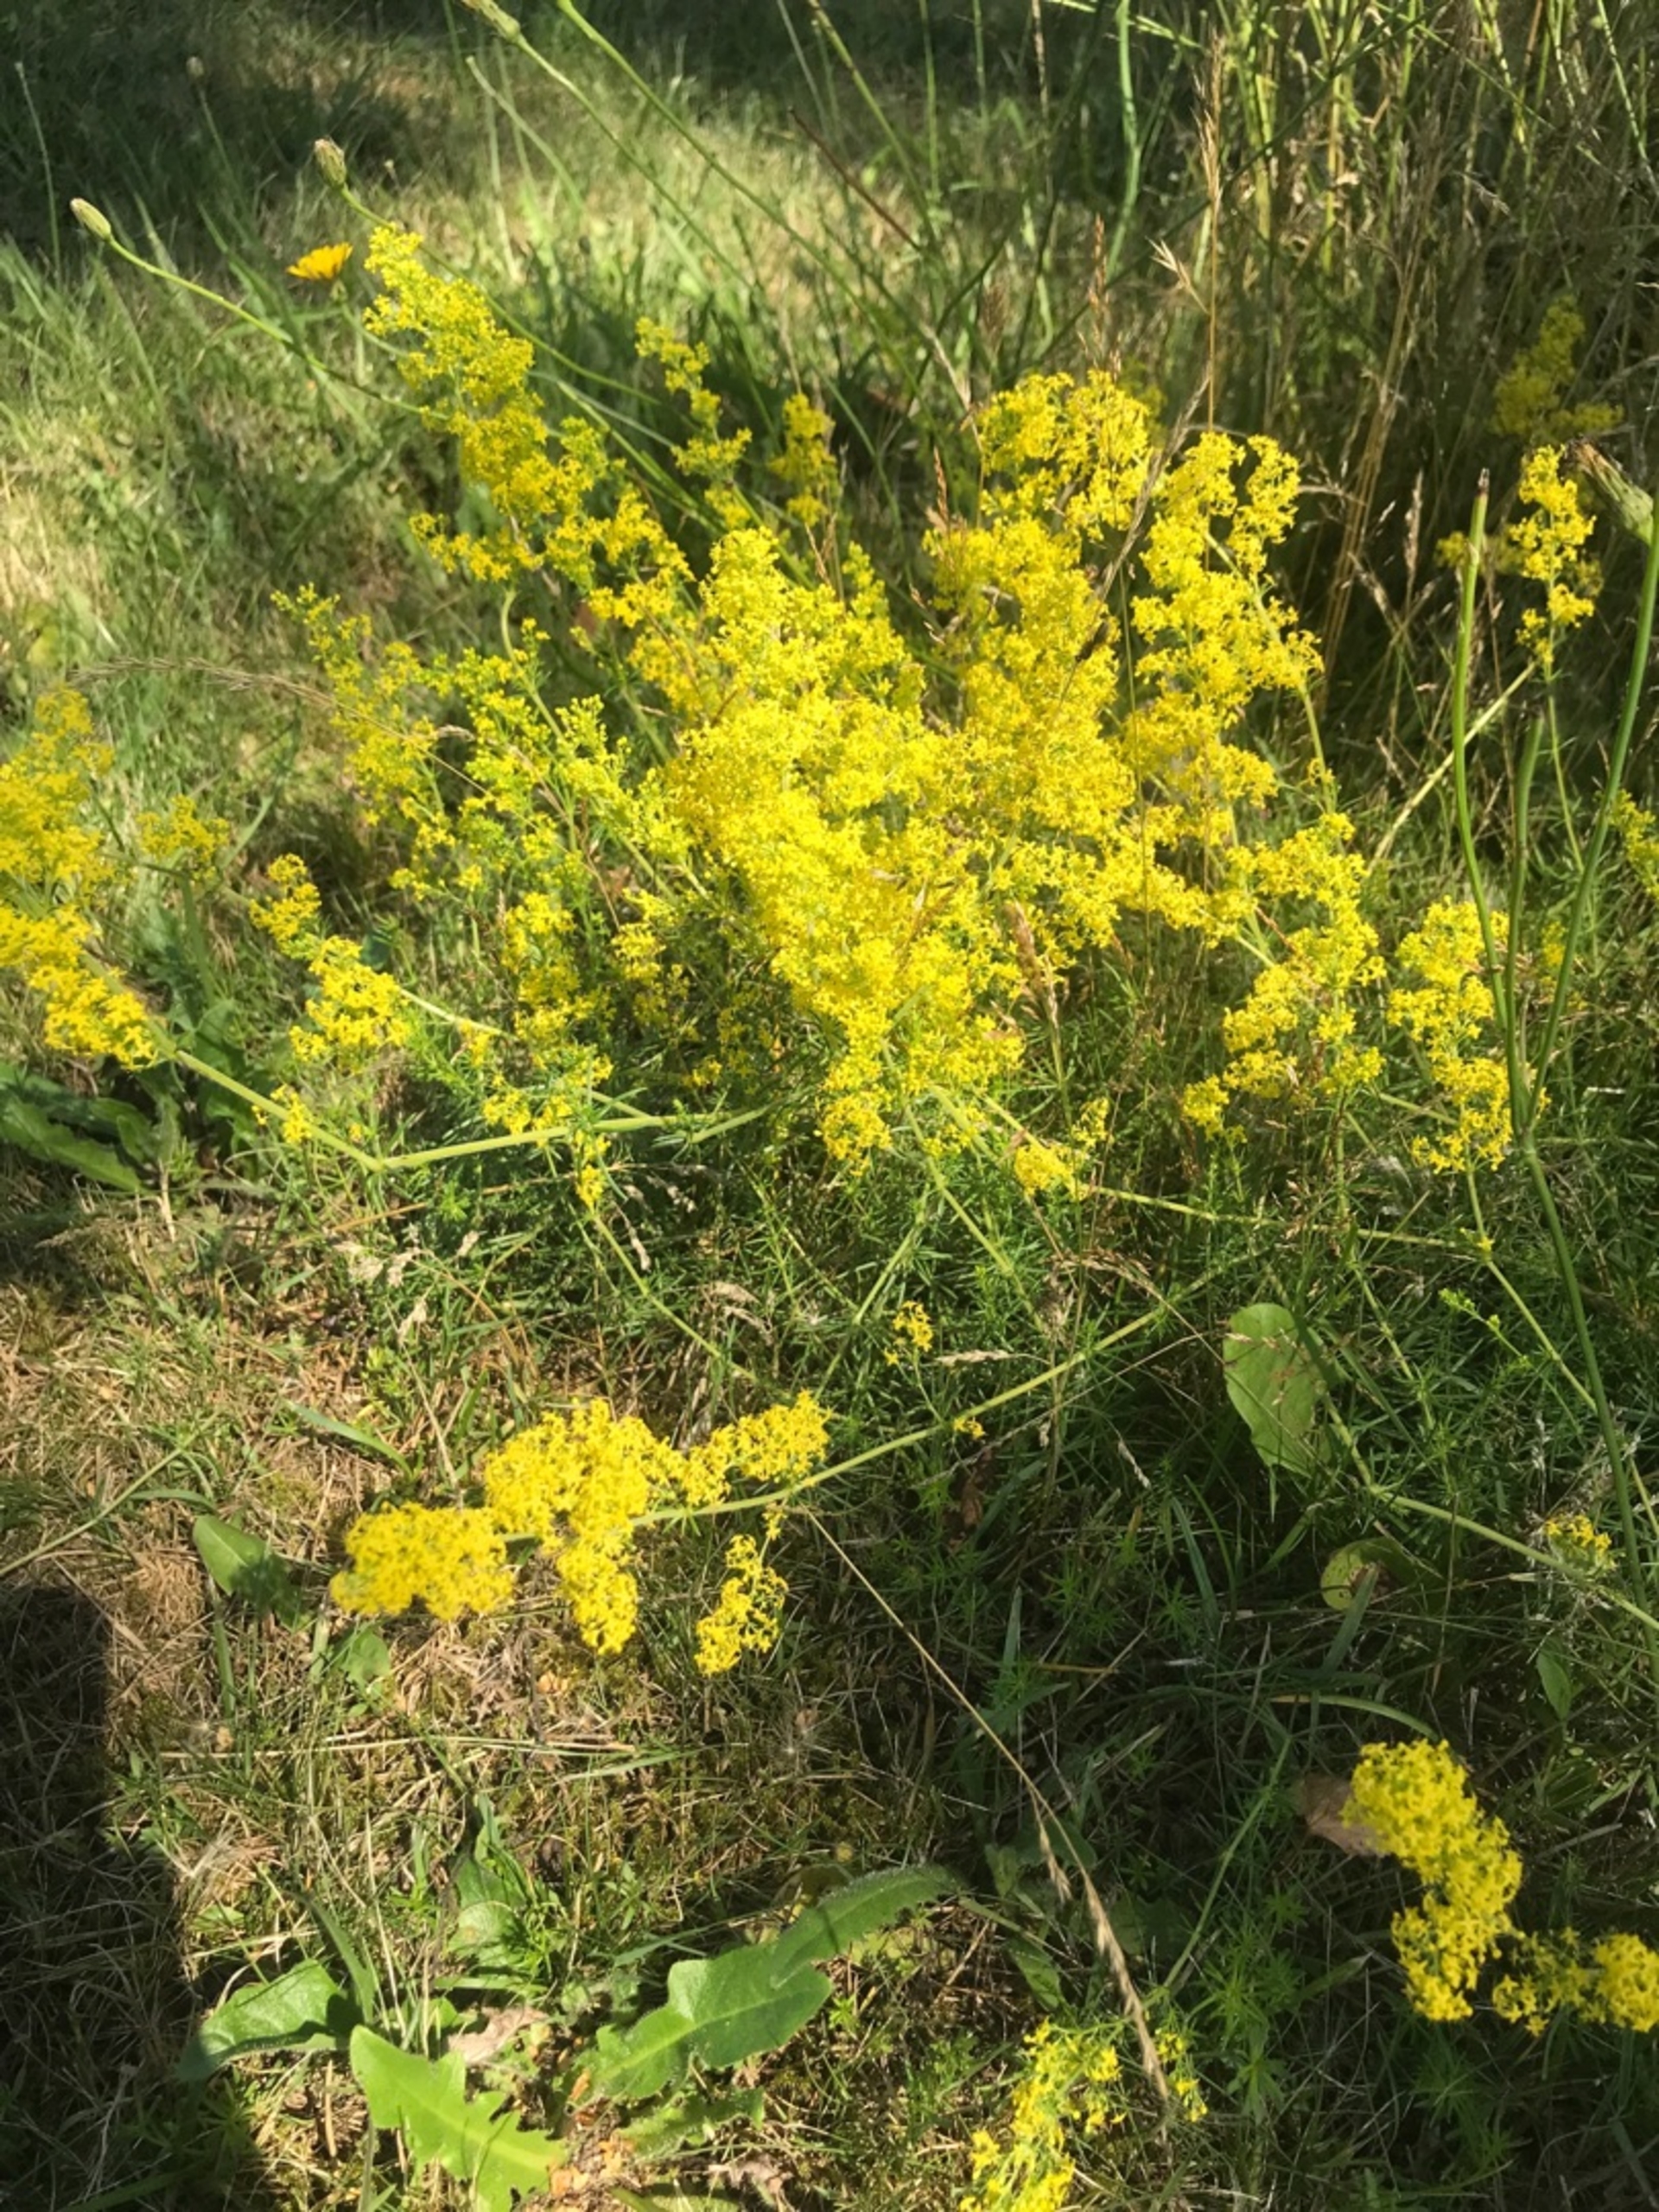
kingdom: Plantae
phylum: Tracheophyta
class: Magnoliopsida
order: Gentianales
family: Rubiaceae
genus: Galium
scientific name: Galium verum
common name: Gul snerre
